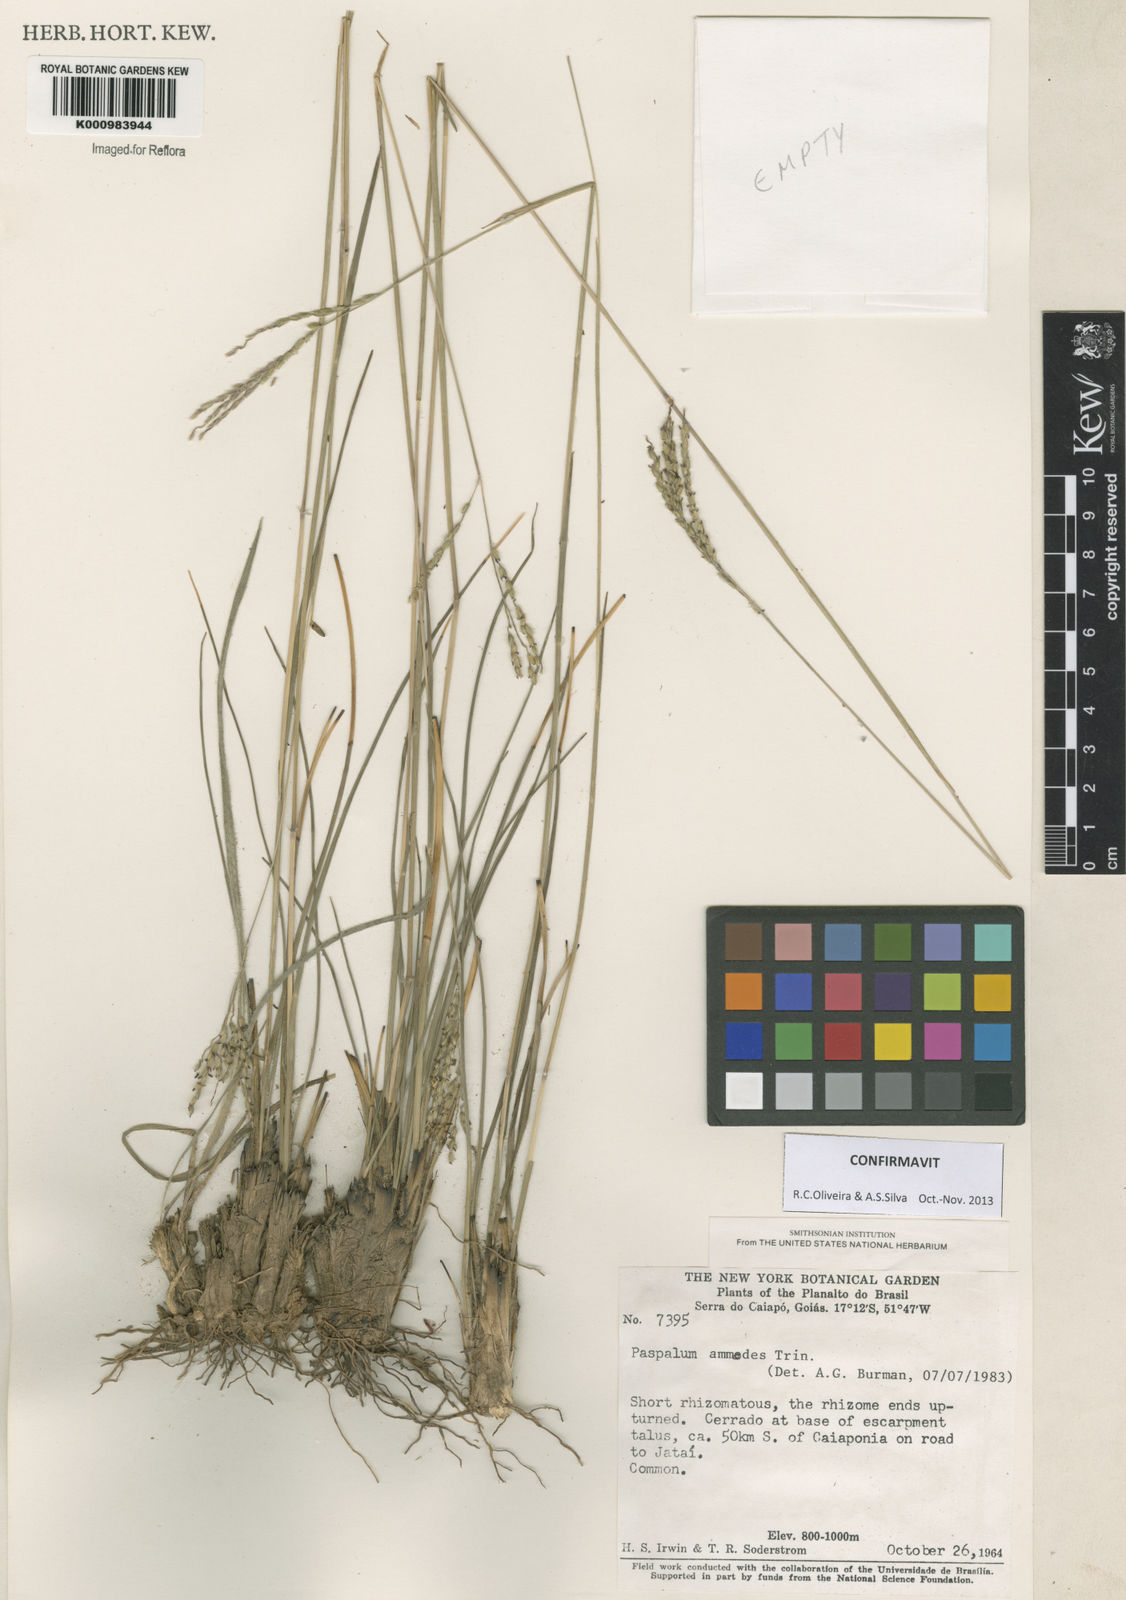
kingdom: Plantae
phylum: Tracheophyta
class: Liliopsida
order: Poales
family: Poaceae
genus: Paspalum
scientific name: Paspalum ammodes
